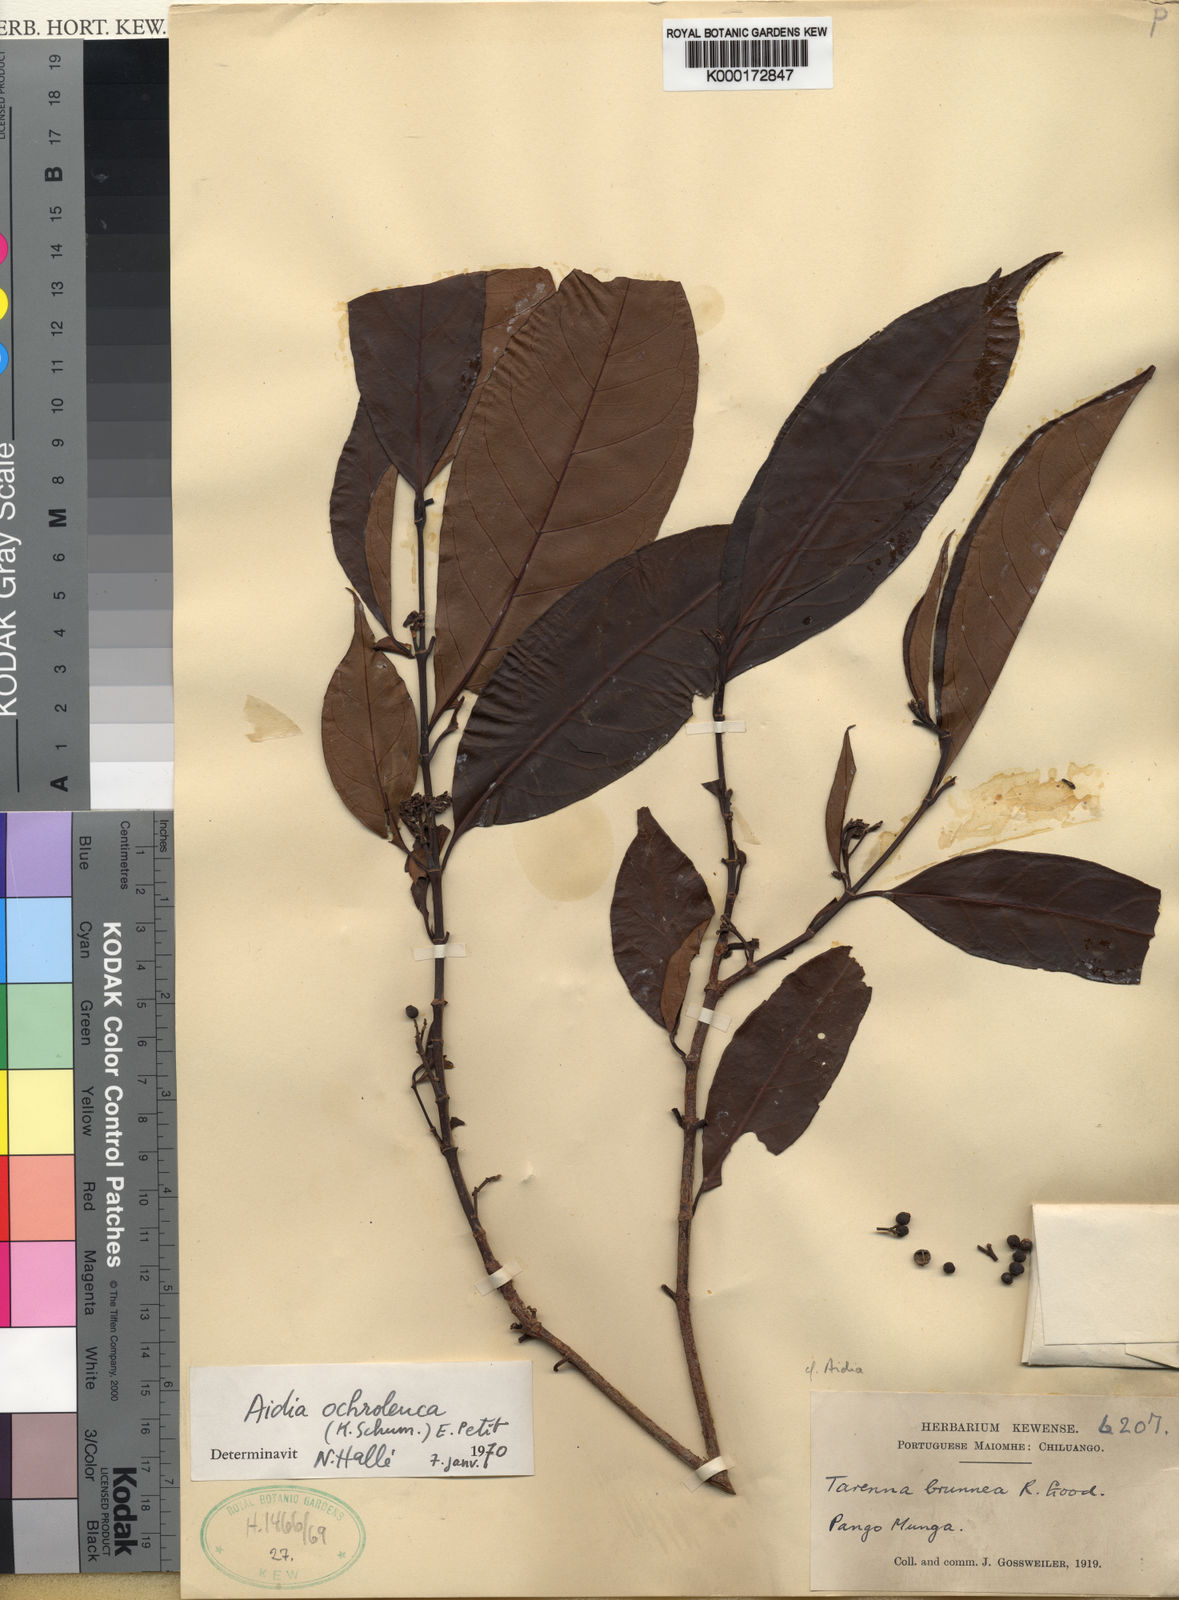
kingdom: Plantae
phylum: Tracheophyta
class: Magnoliopsida
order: Gentianales
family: Rubiaceae
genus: Aidia
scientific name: Aidia ochroleuca
